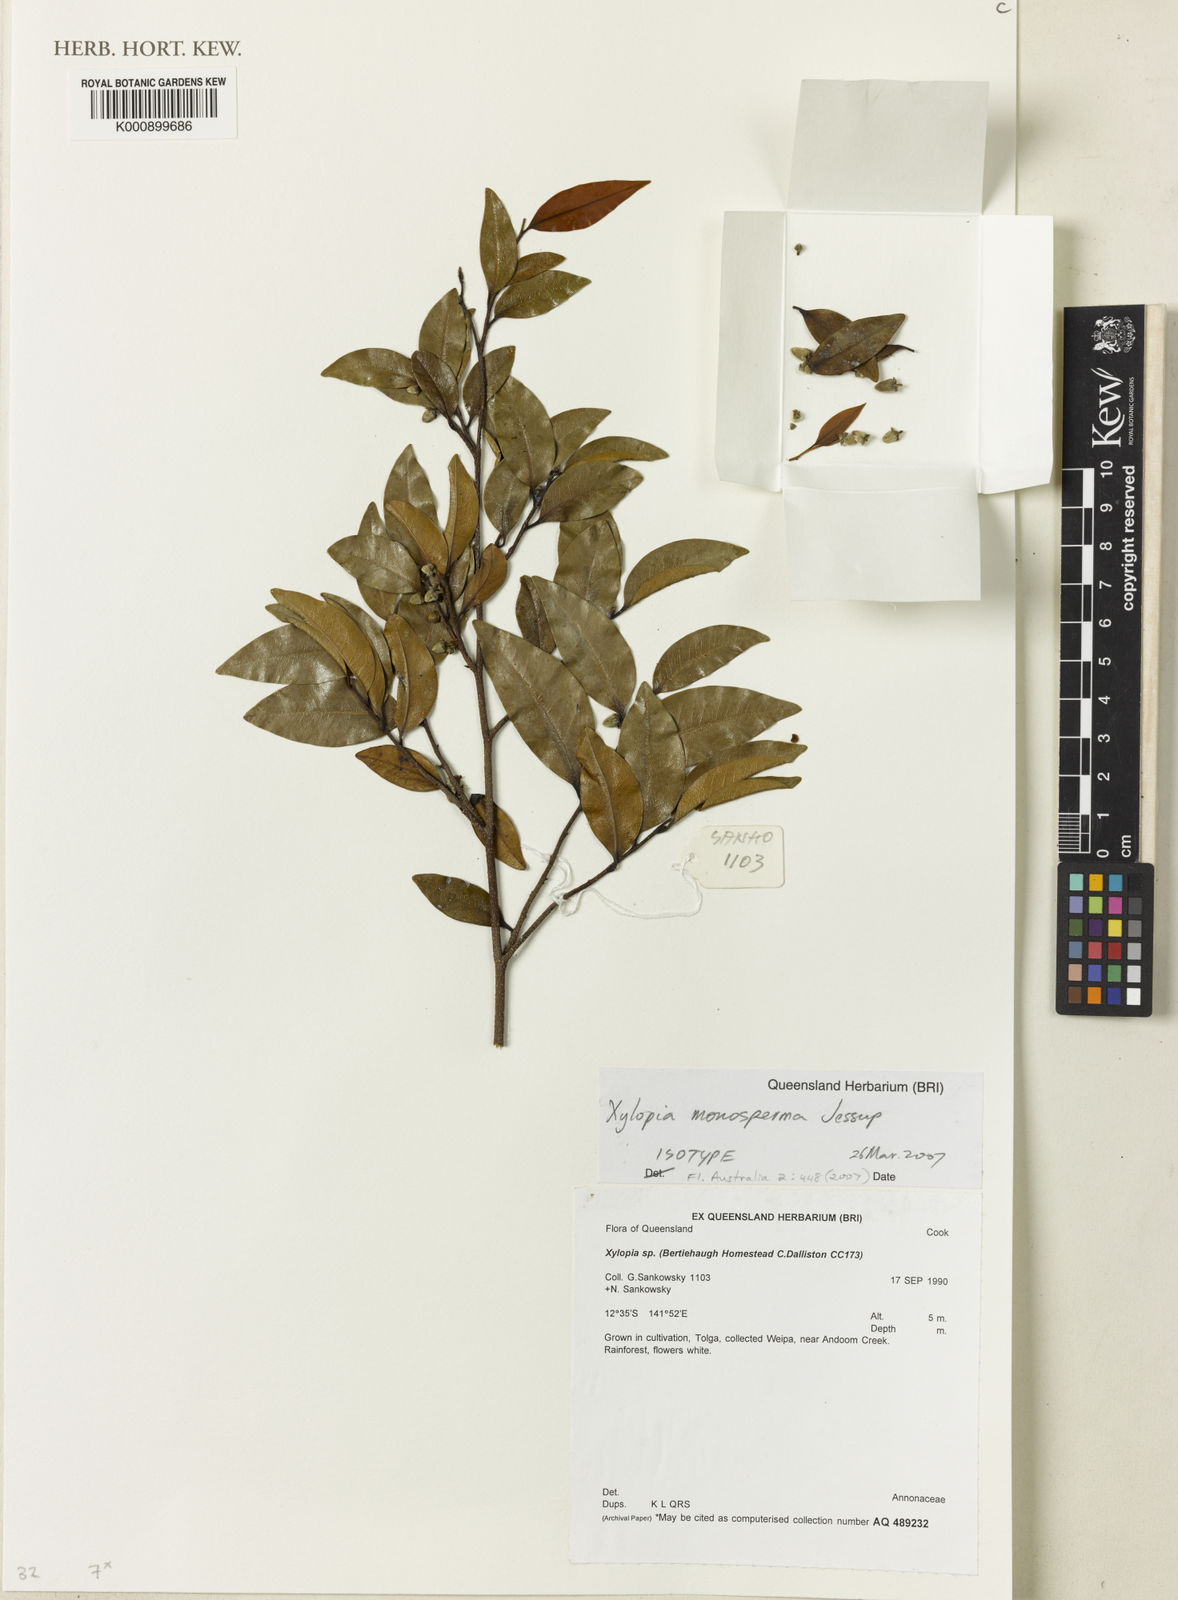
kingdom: Plantae
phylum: Tracheophyta
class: Magnoliopsida
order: Magnoliales
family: Annonaceae
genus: Xylopia
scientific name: Xylopia monosperma
